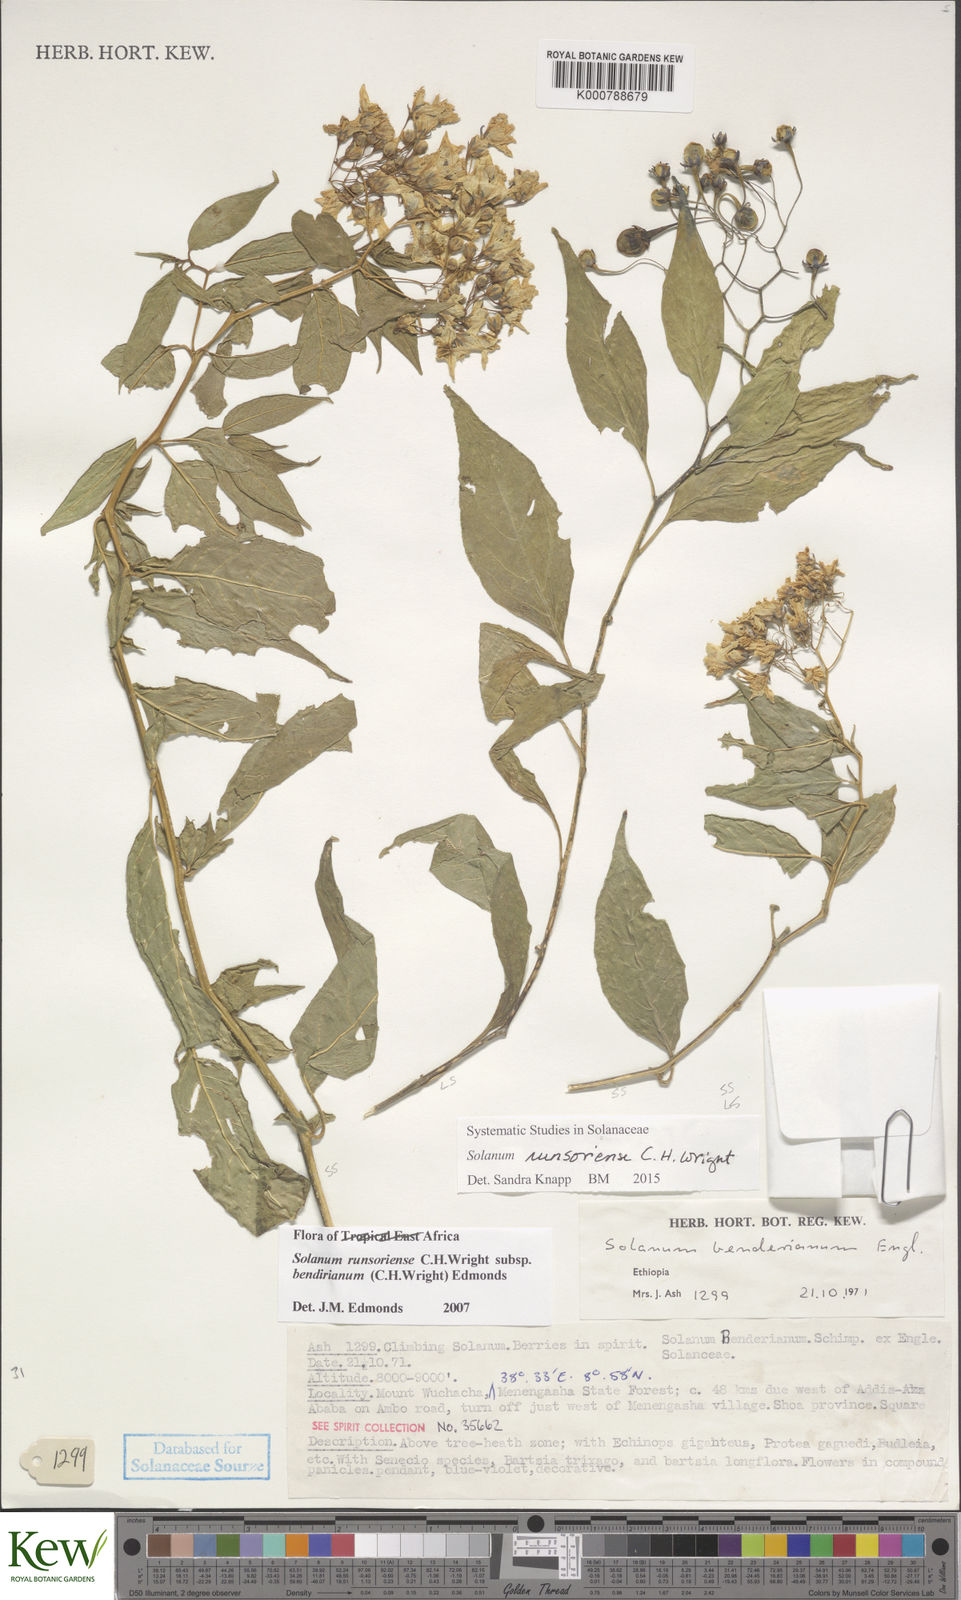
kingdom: Plantae
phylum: Tracheophyta
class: Magnoliopsida
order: Solanales
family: Solanaceae
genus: Solanum
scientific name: Solanum runsoriense
